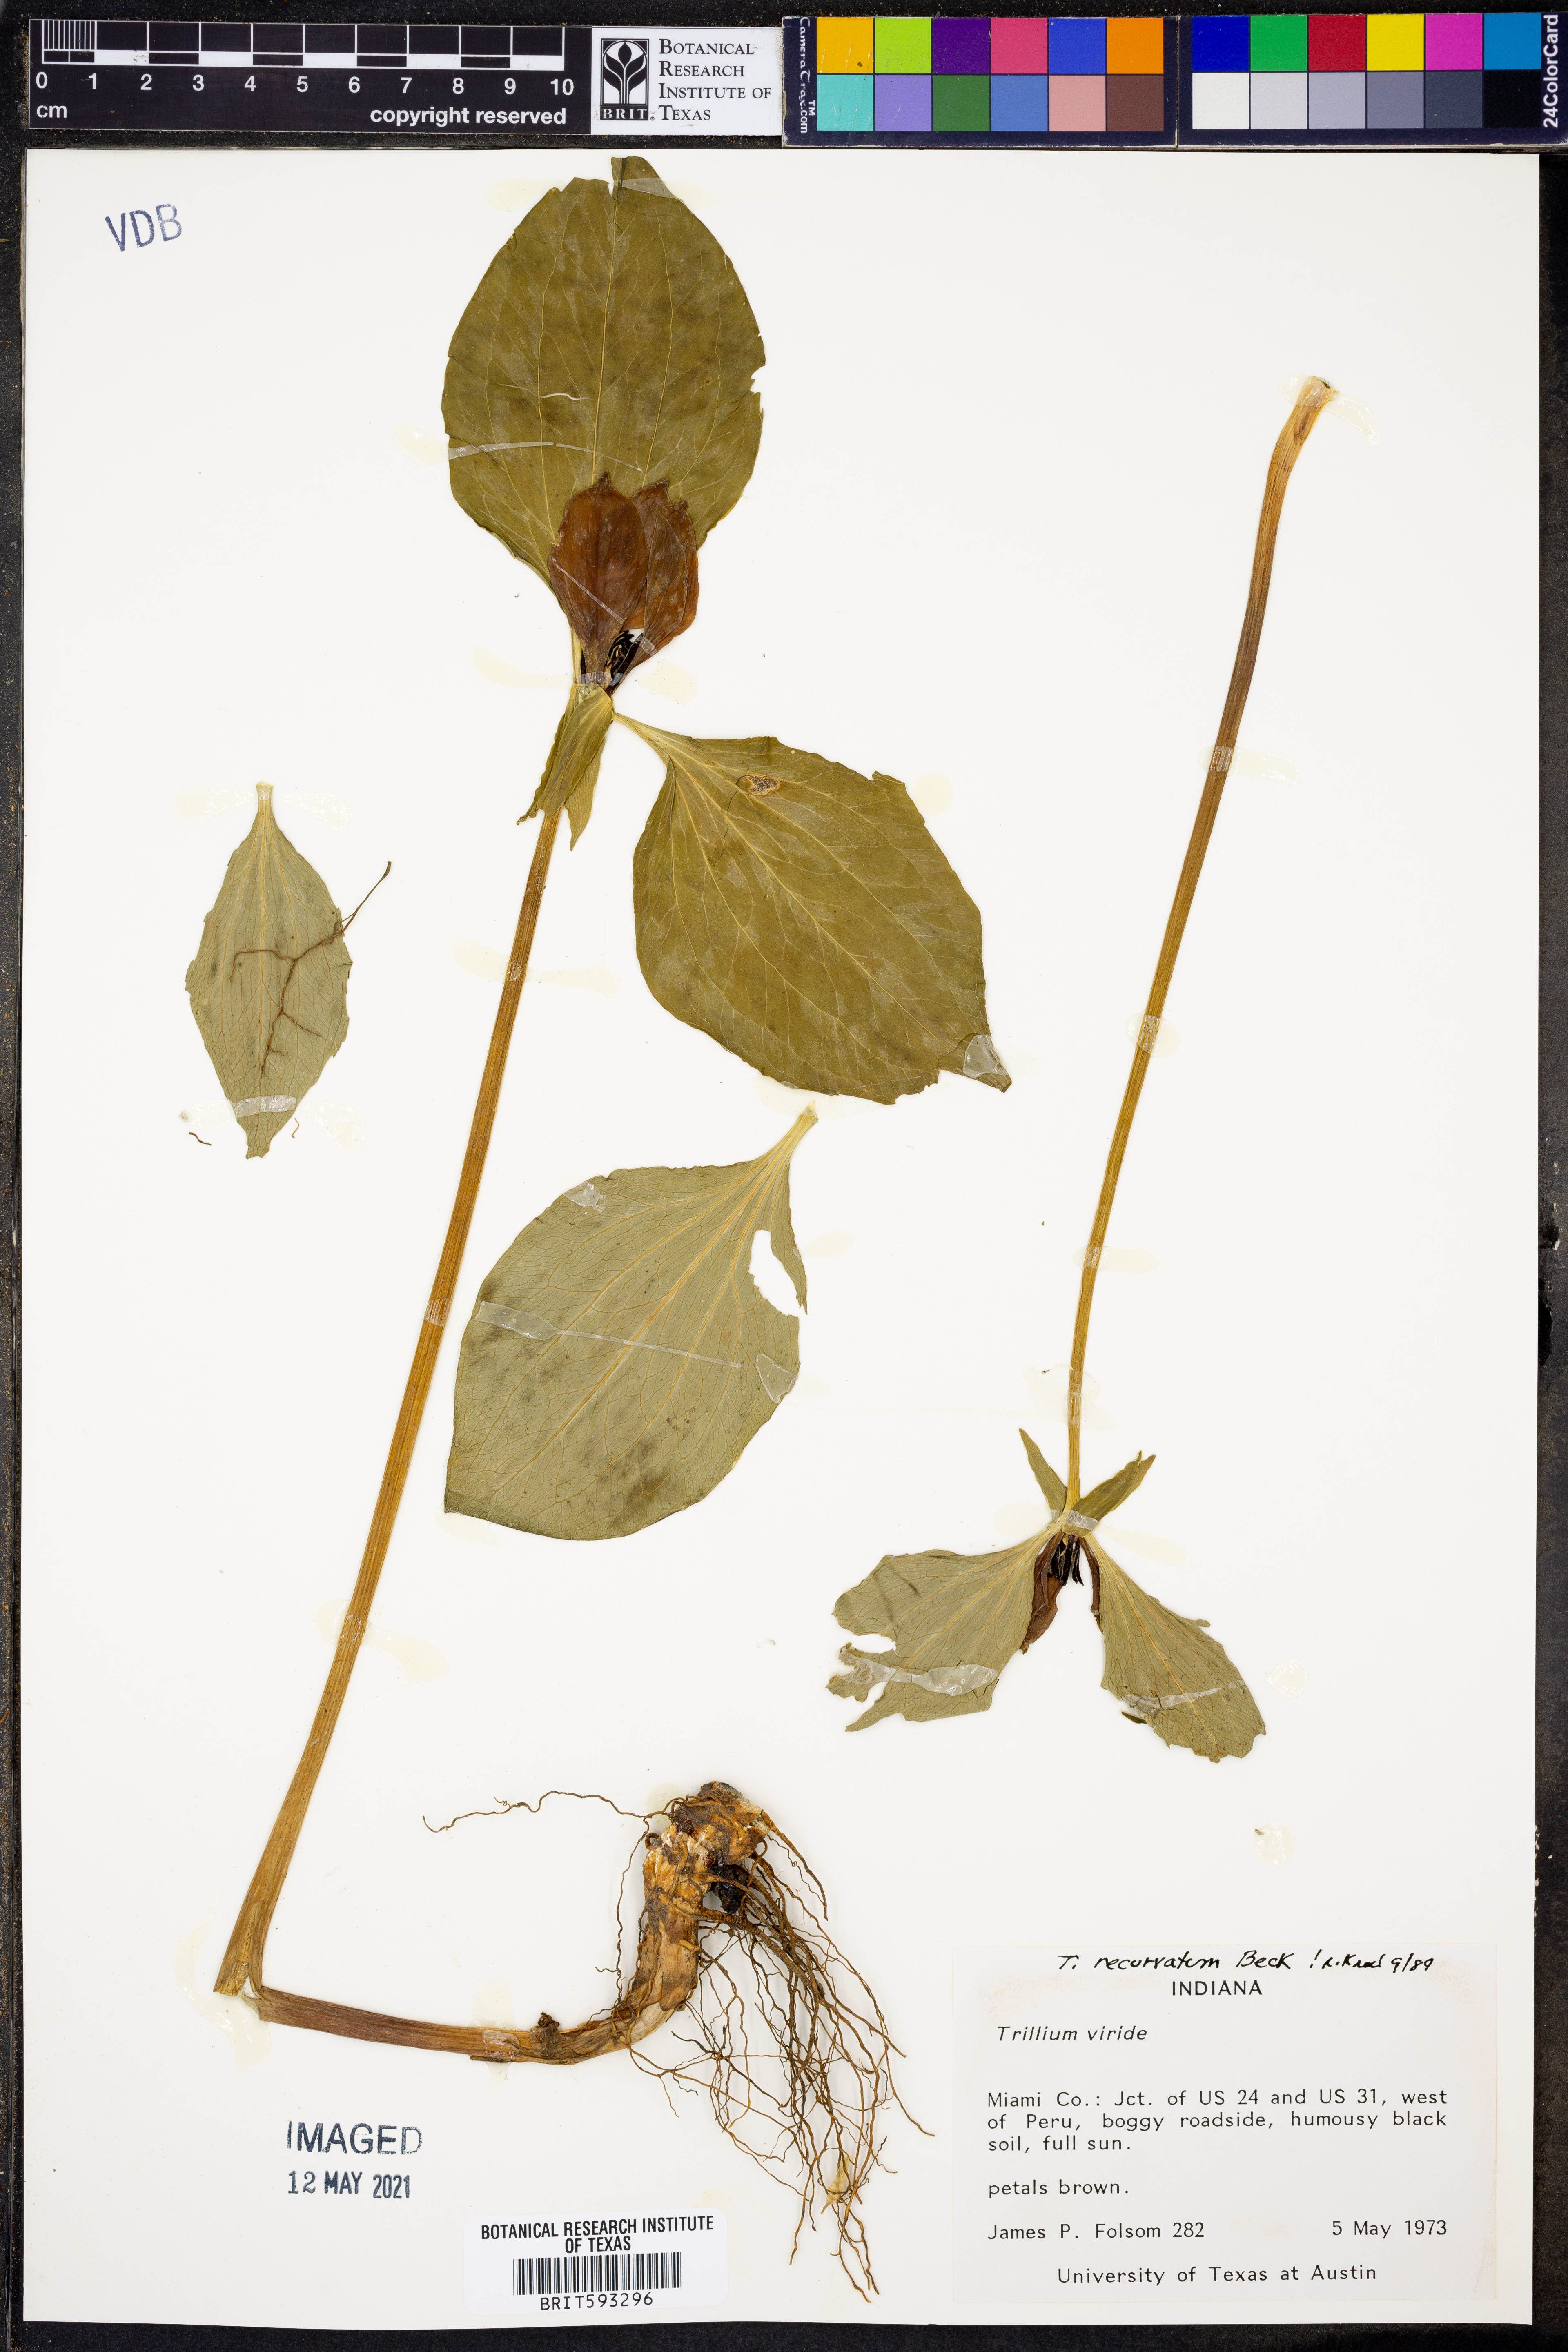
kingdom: Plantae
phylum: Tracheophyta
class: Liliopsida
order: Liliales
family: Melanthiaceae
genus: Trillium
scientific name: Trillium recurvatum
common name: Bloody butcher
